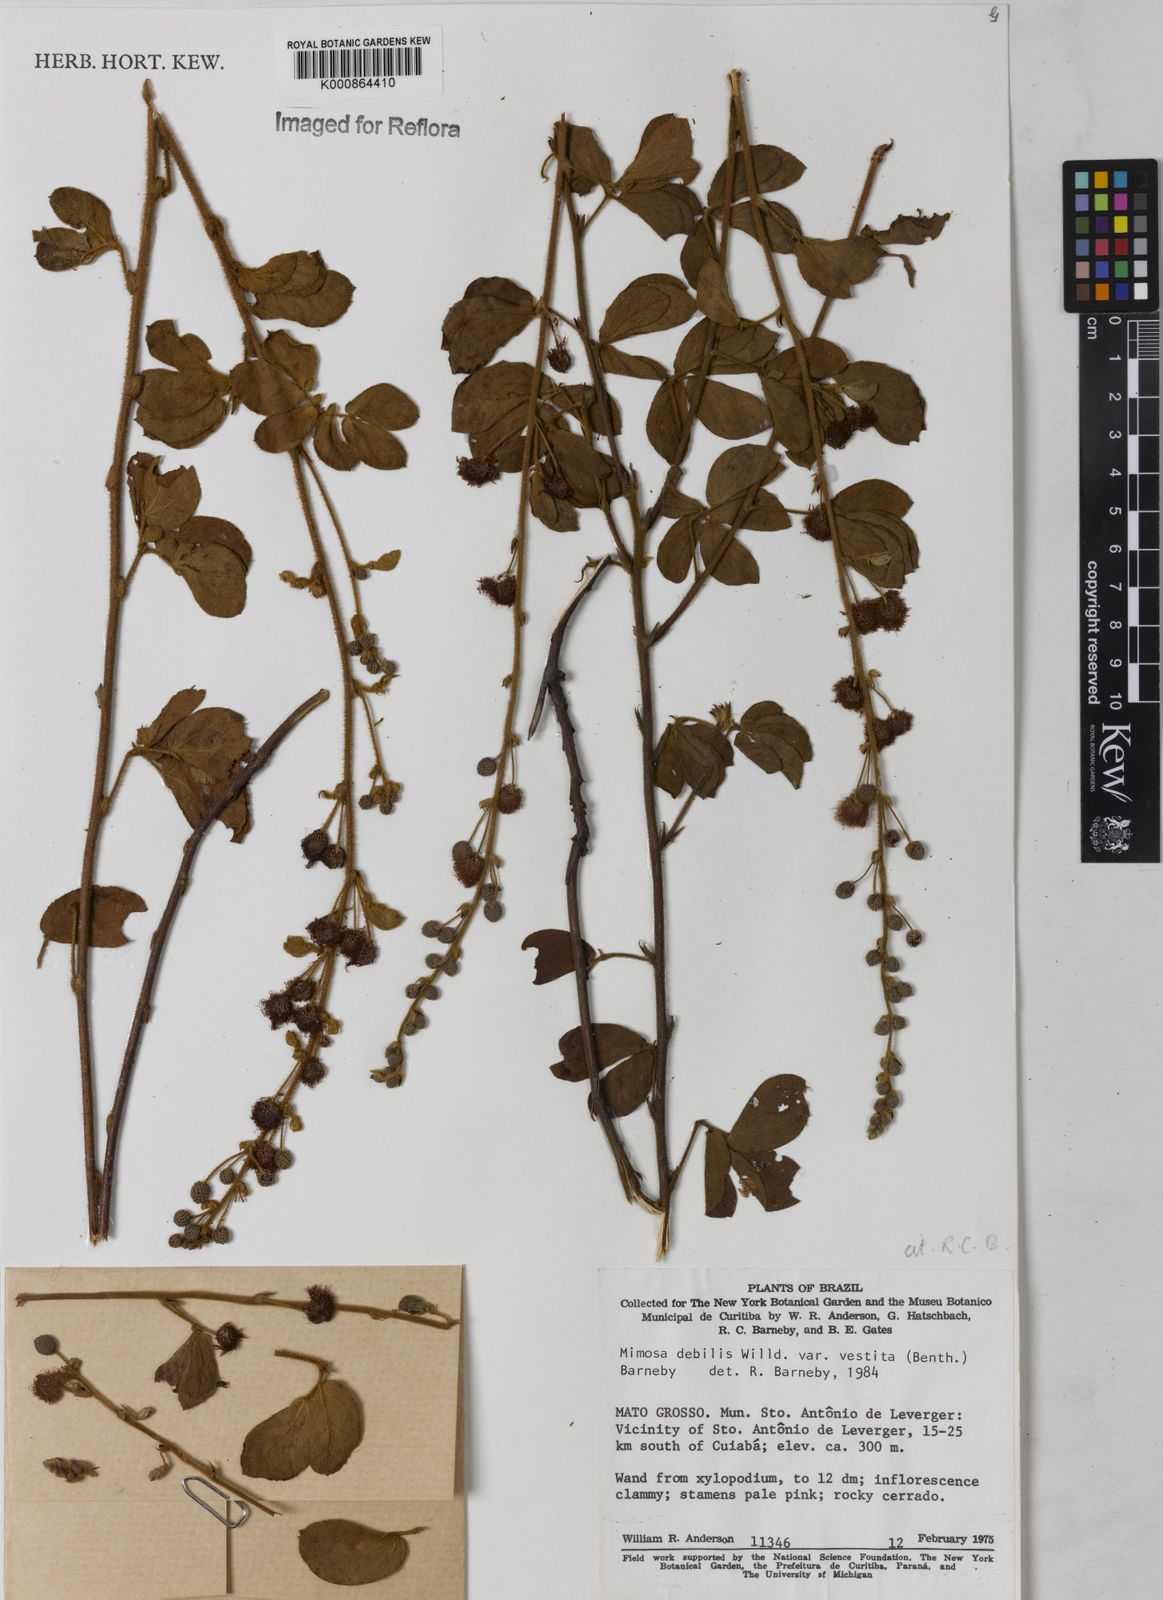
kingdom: Plantae
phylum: Tracheophyta
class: Magnoliopsida
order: Fabales
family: Fabaceae
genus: Mimosa
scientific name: Mimosa debilis
